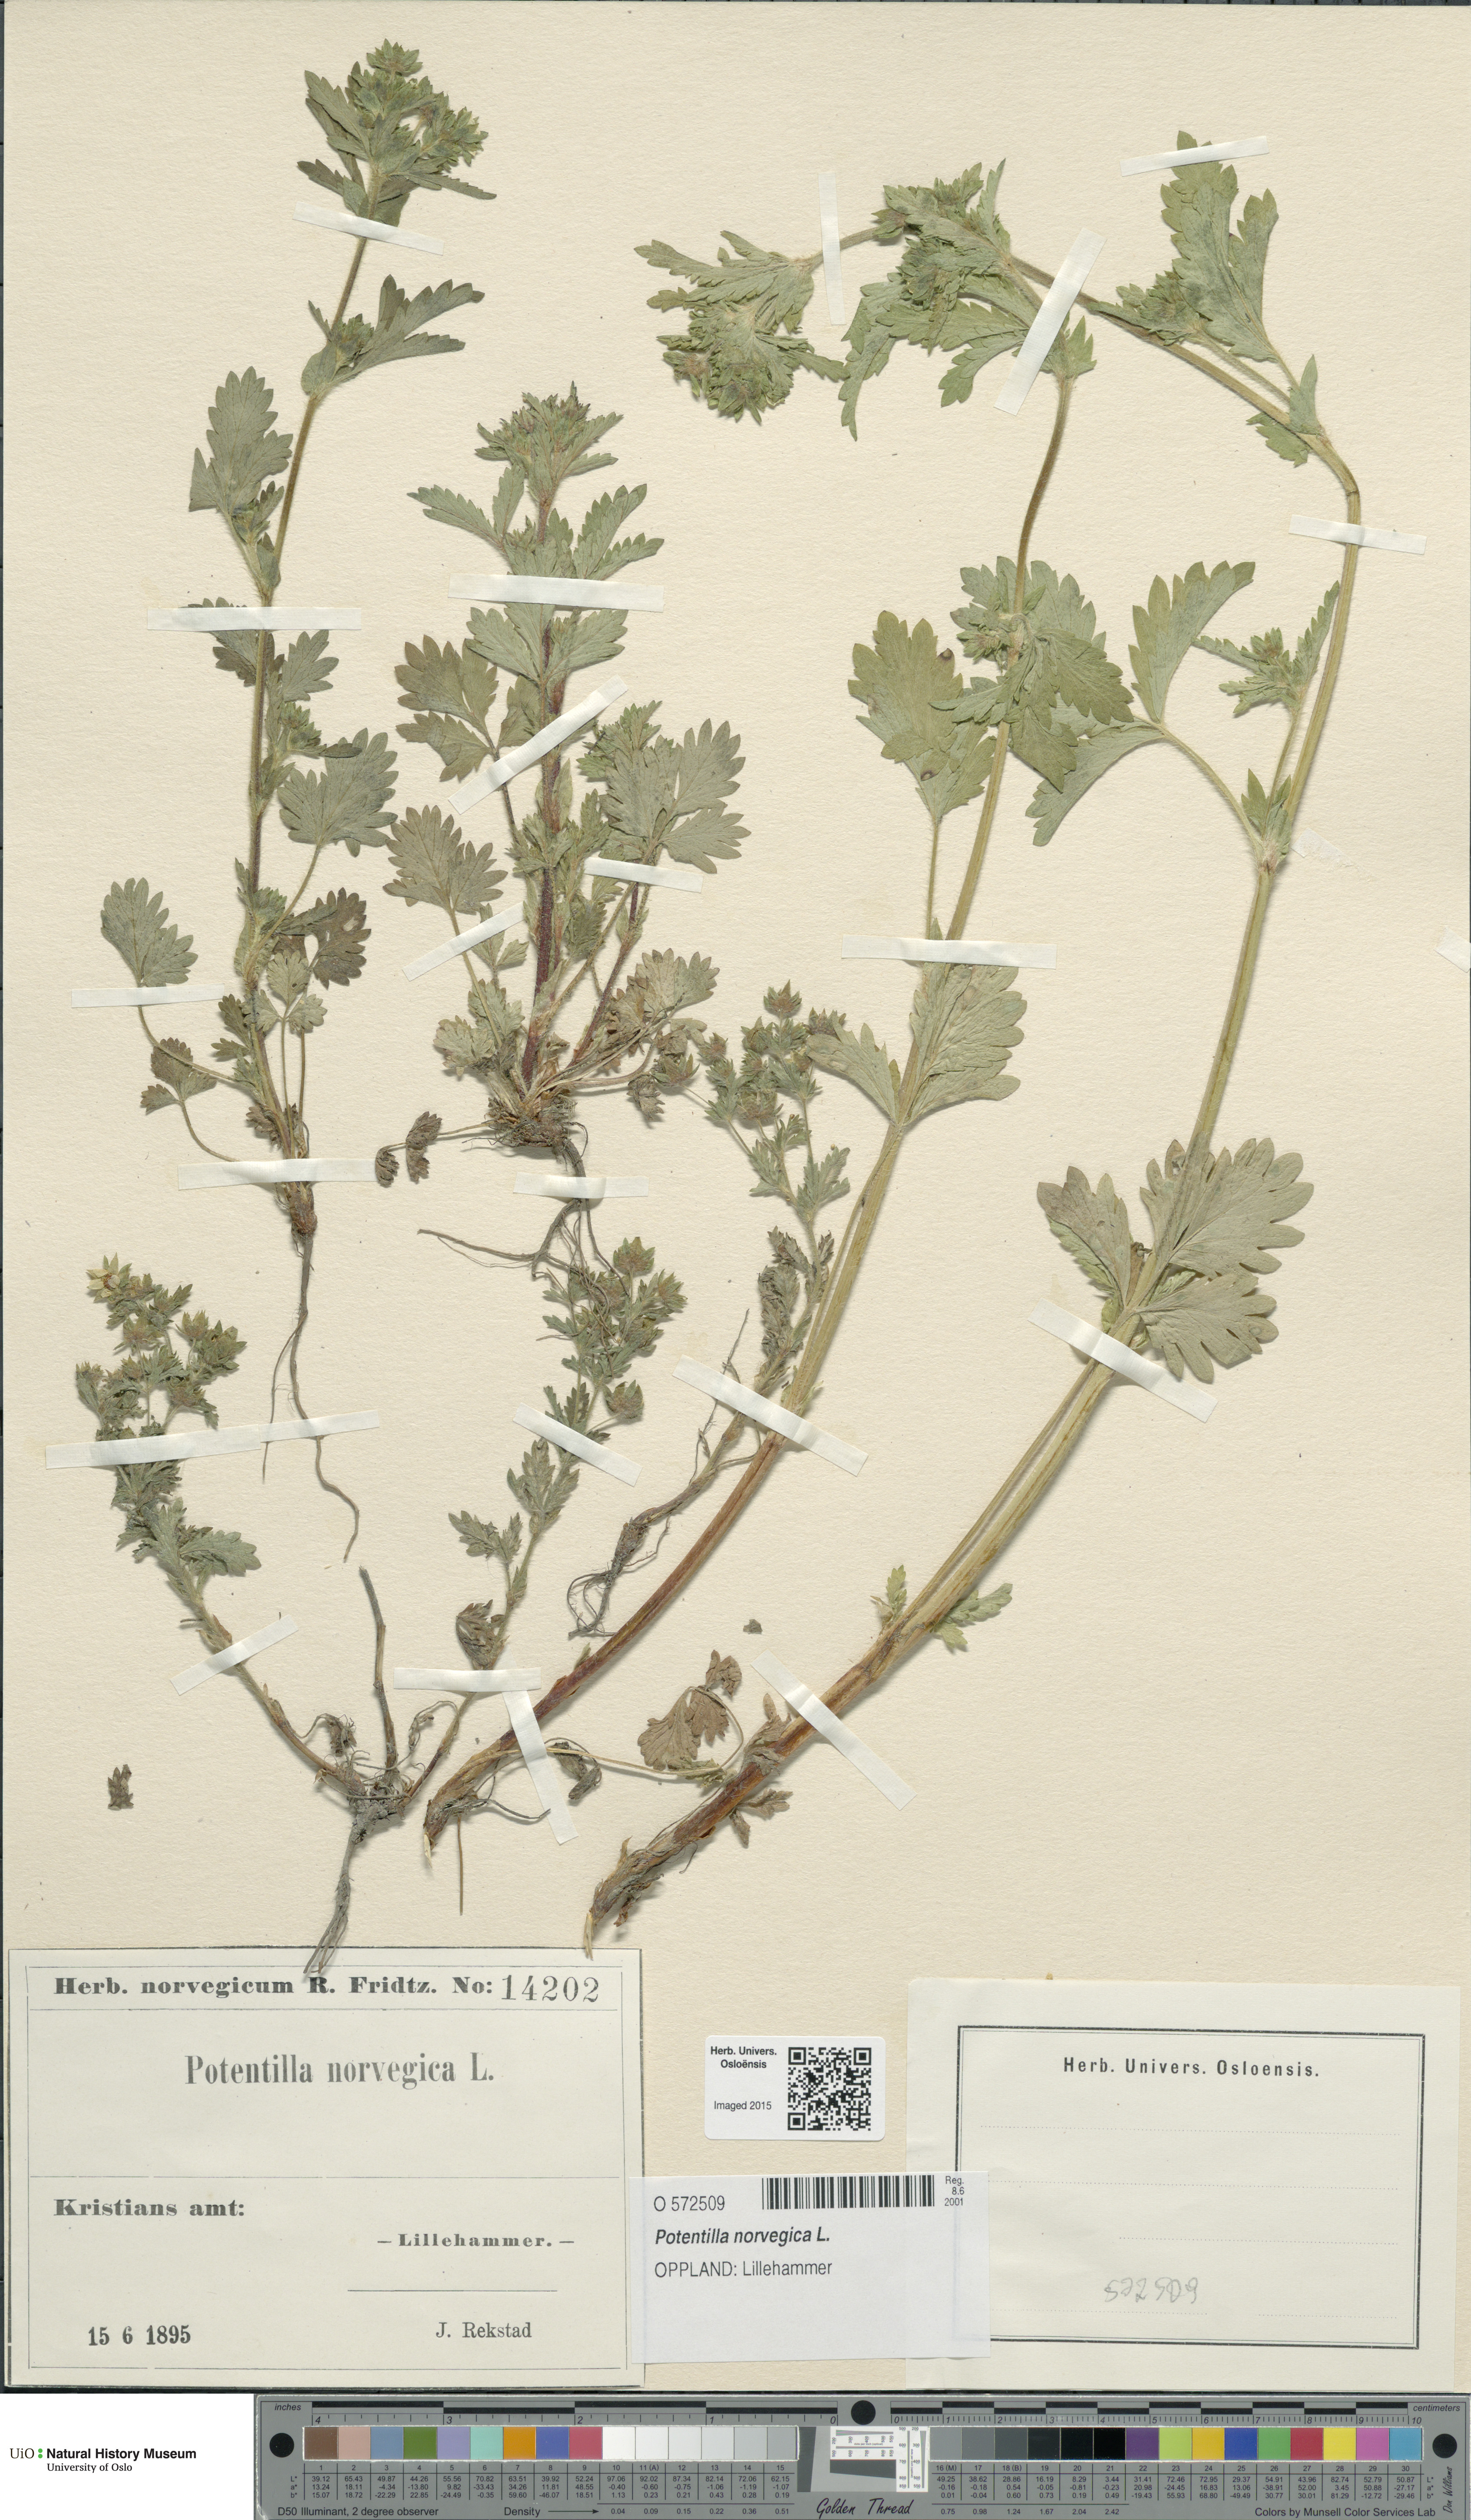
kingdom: Plantae
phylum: Tracheophyta
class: Magnoliopsida
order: Rosales
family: Rosaceae
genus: Potentilla
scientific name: Potentilla norvegica
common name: Ternate-leaved cinquefoil
